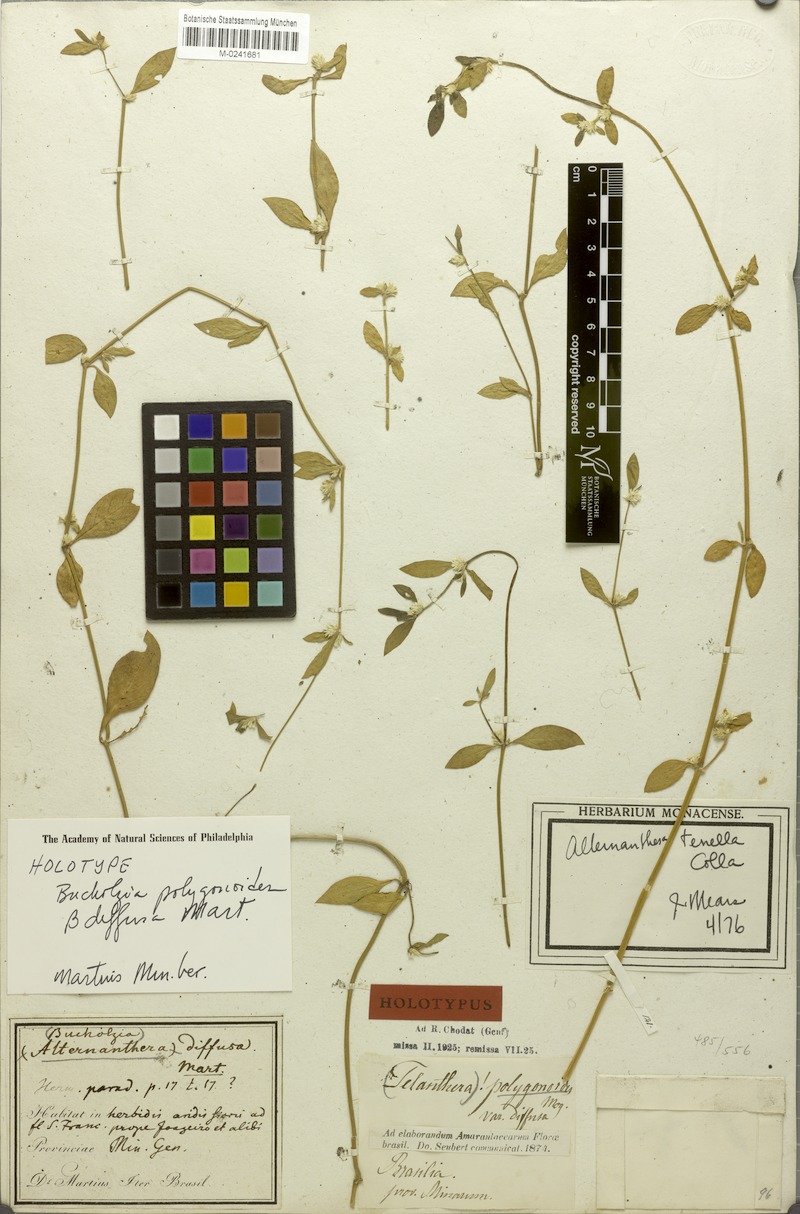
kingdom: Plantae
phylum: Tracheophyta
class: Magnoliopsida
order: Caryophyllales
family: Amaranthaceae
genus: Alternanthera
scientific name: Alternanthera paronychioides
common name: Smooth joyweed
